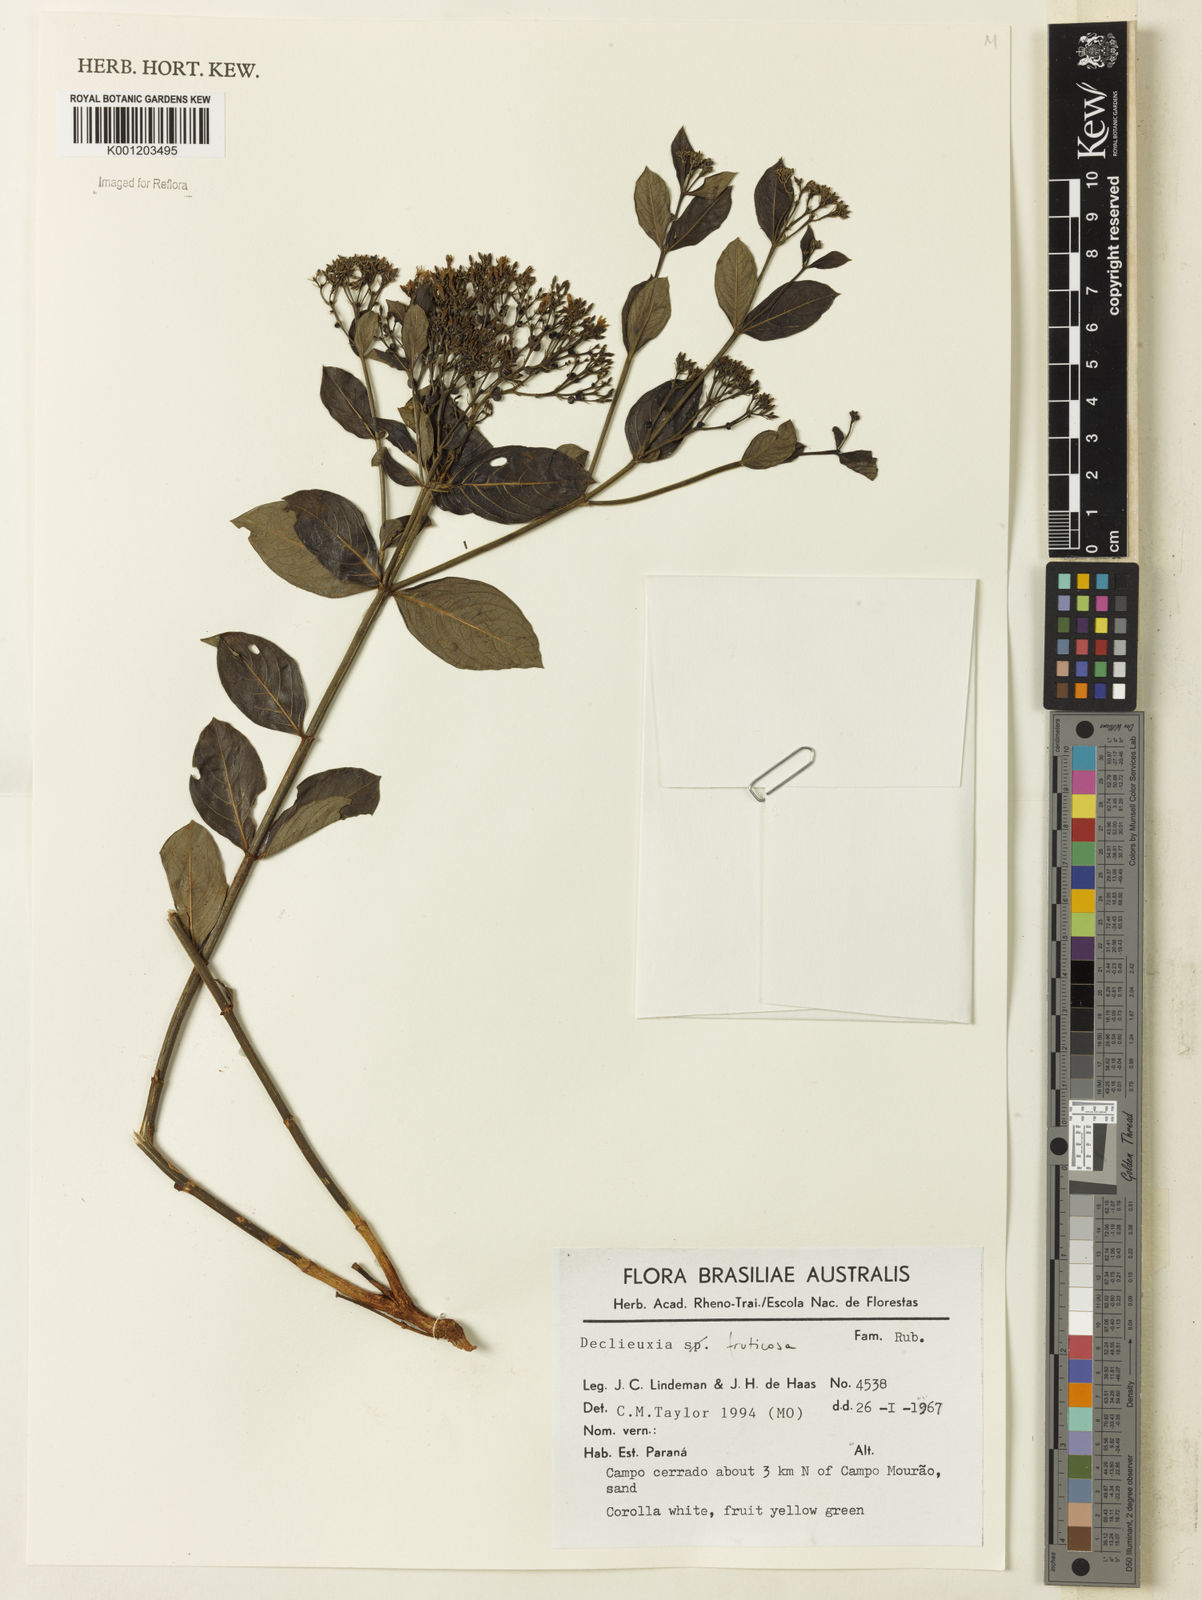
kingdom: Plantae
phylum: Tracheophyta
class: Magnoliopsida
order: Gentianales
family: Rubiaceae
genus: Declieuxia
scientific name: Declieuxia fruticosa
